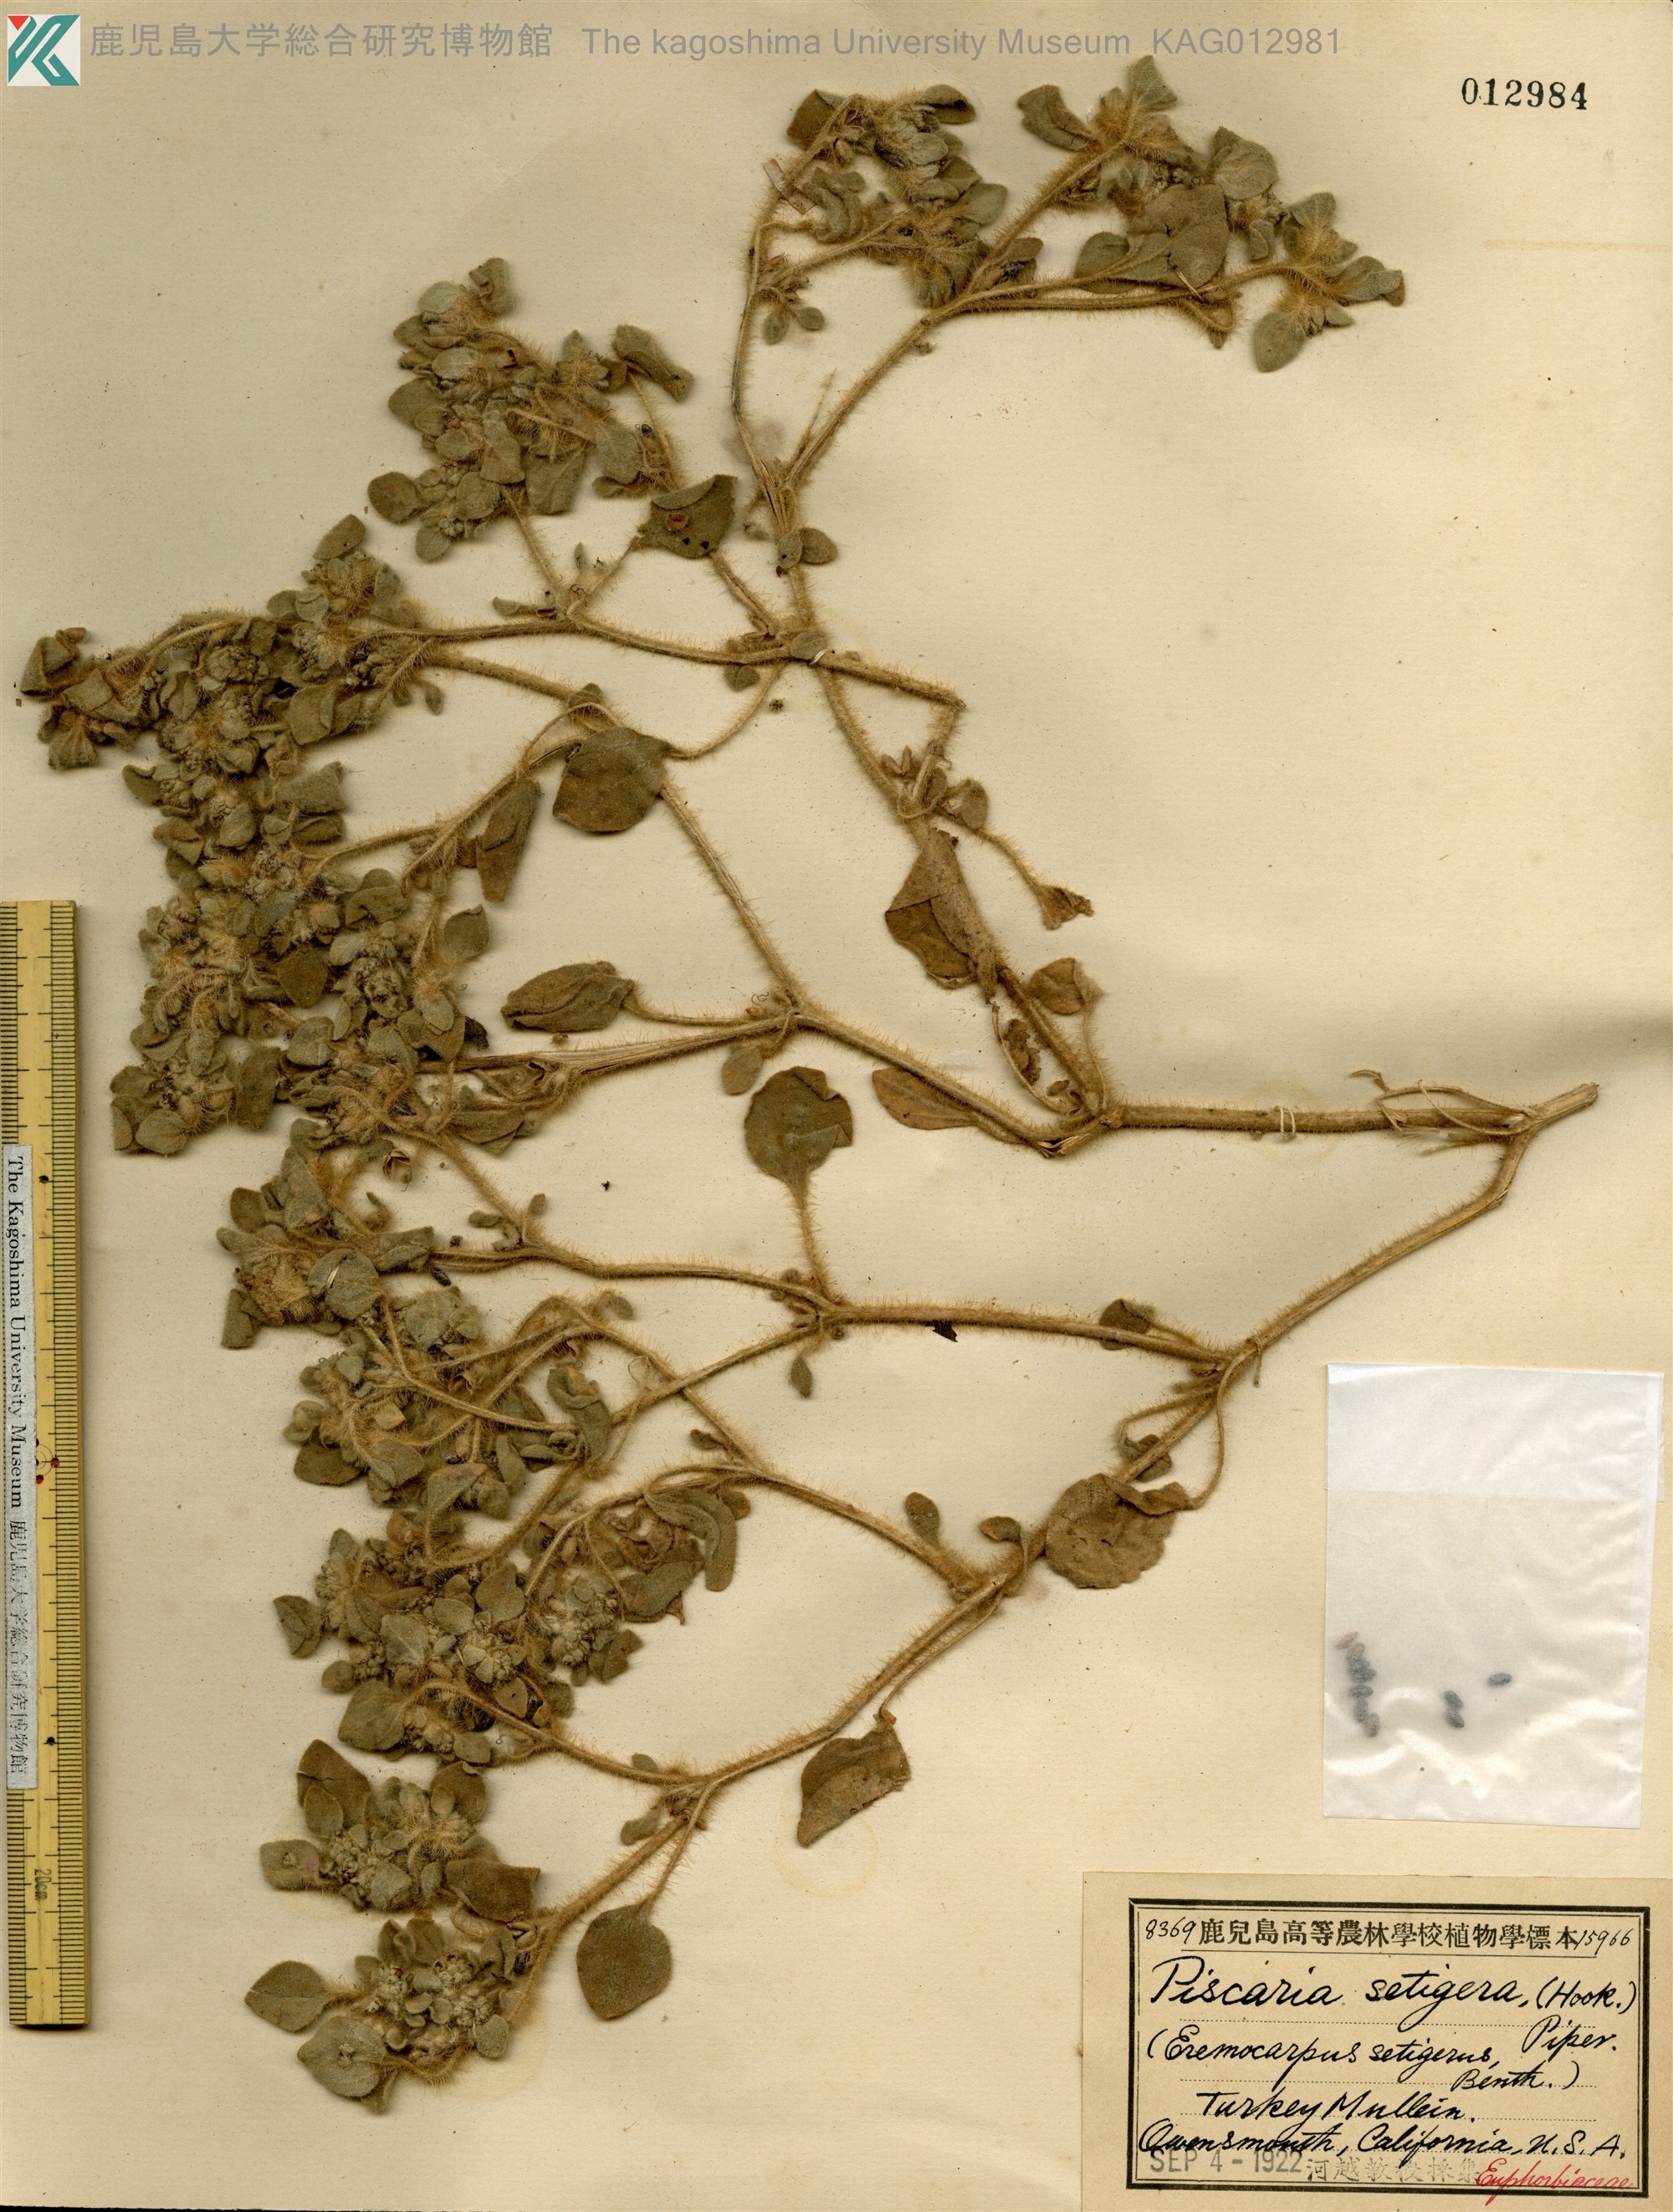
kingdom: Plantae
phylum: Tracheophyta
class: Magnoliopsida
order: Malpighiales
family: Euphorbiaceae
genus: Croton
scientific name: Croton setiger
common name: Dove weed
